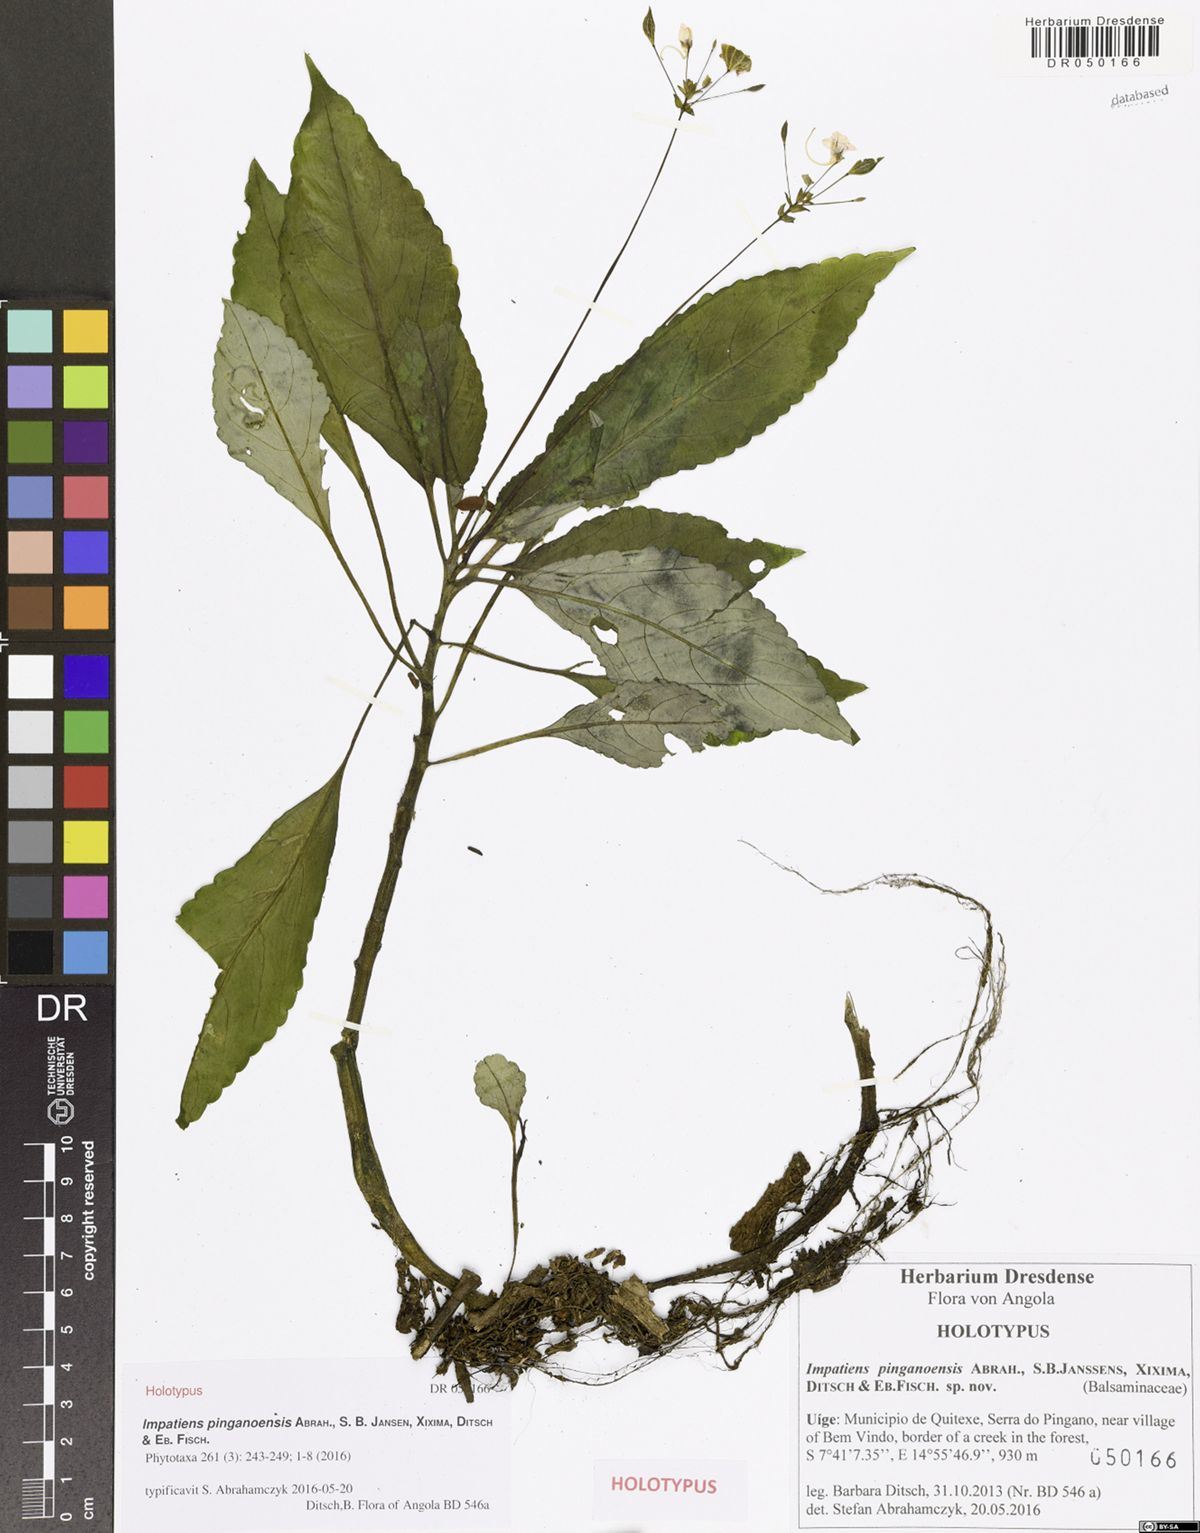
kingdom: Plantae
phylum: Tracheophyta
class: Magnoliopsida
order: Ericales
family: Balsaminaceae
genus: Impatiens
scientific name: Impatiens pinganoensis
